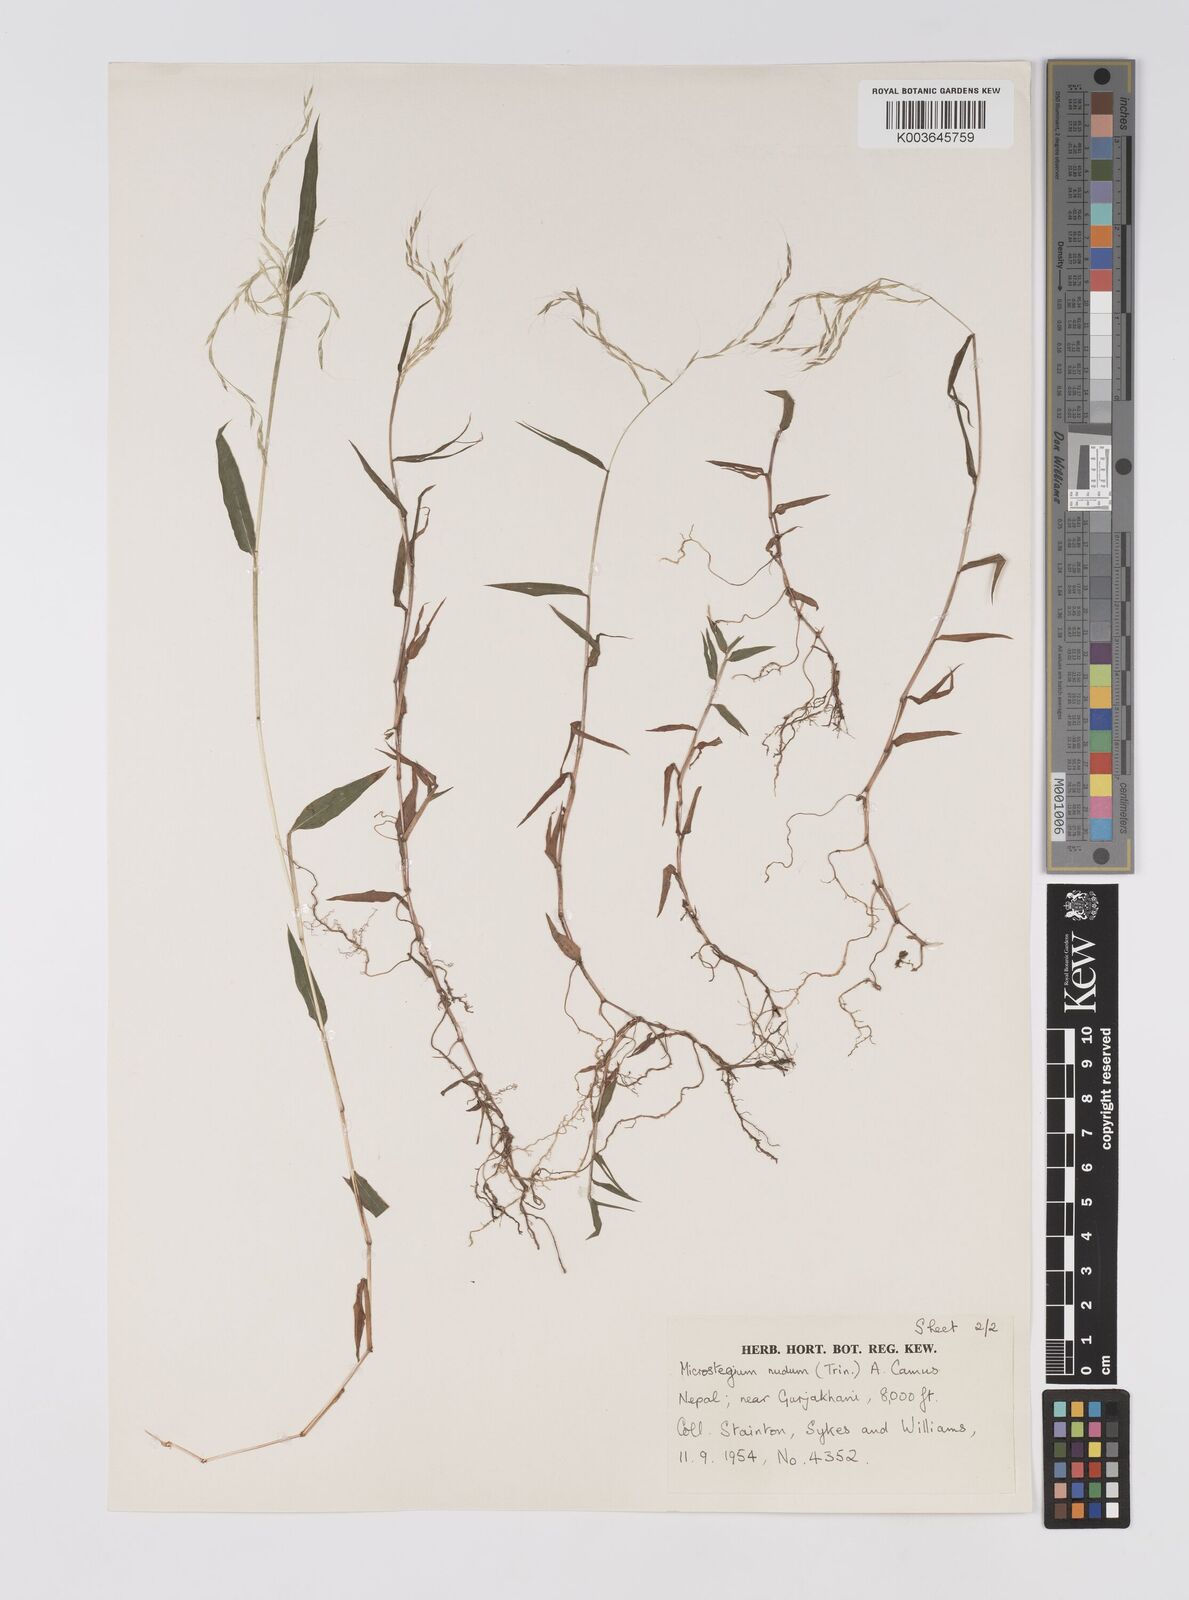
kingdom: Plantae
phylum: Tracheophyta
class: Liliopsida
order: Poales
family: Poaceae
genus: Microstegium
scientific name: Microstegium nudum
